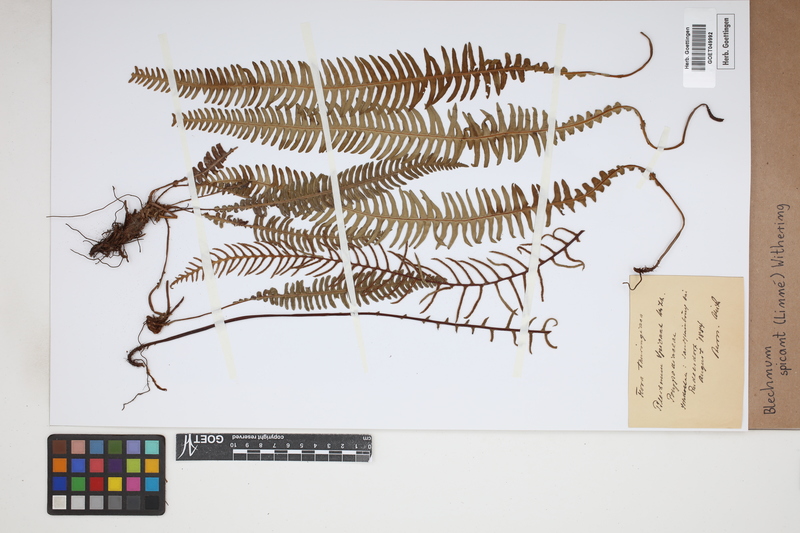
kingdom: Plantae
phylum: Tracheophyta
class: Polypodiopsida
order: Polypodiales
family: Blechnaceae
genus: Struthiopteris
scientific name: Struthiopteris spicant
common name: Deer fern
